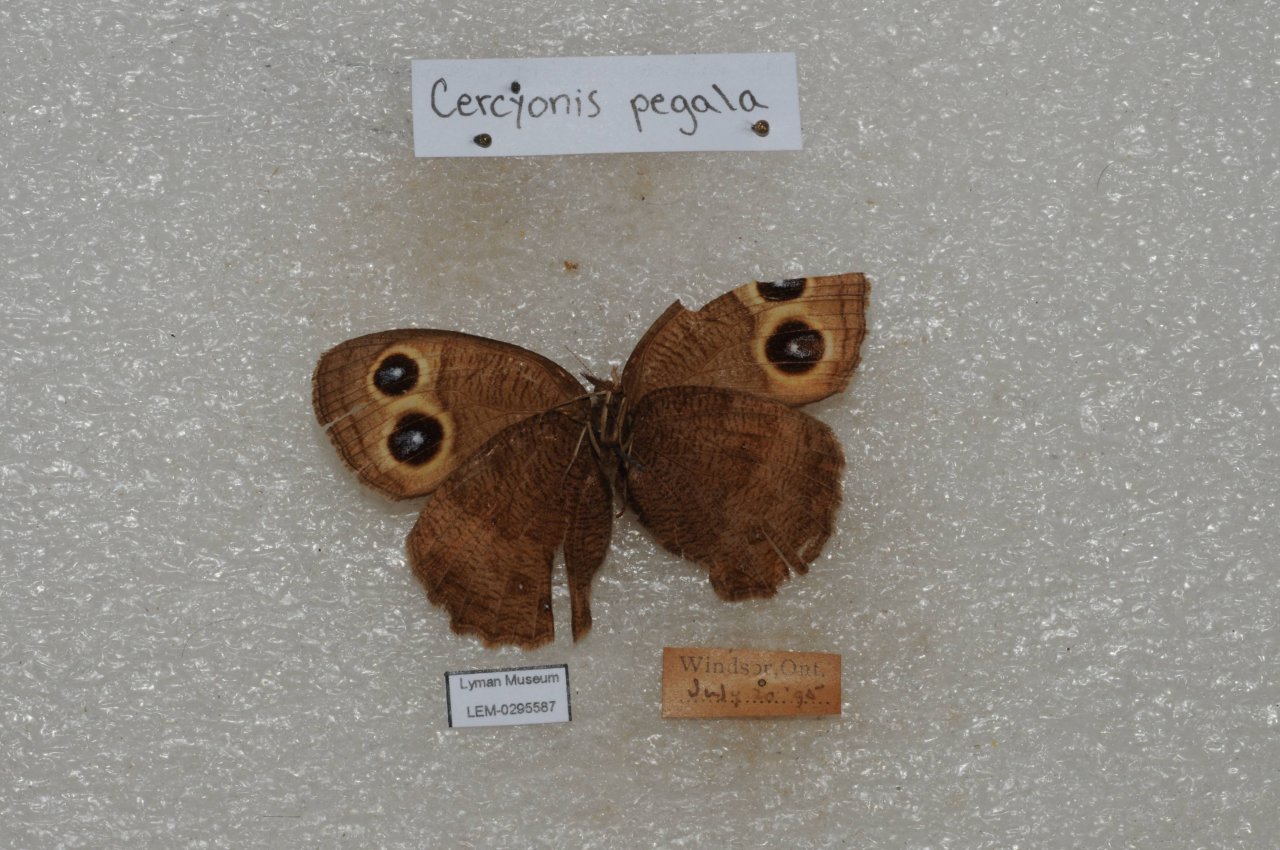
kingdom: Animalia
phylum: Arthropoda
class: Insecta
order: Lepidoptera
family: Nymphalidae
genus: Cercyonis
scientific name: Cercyonis pegala
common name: Common Wood-Nymph
